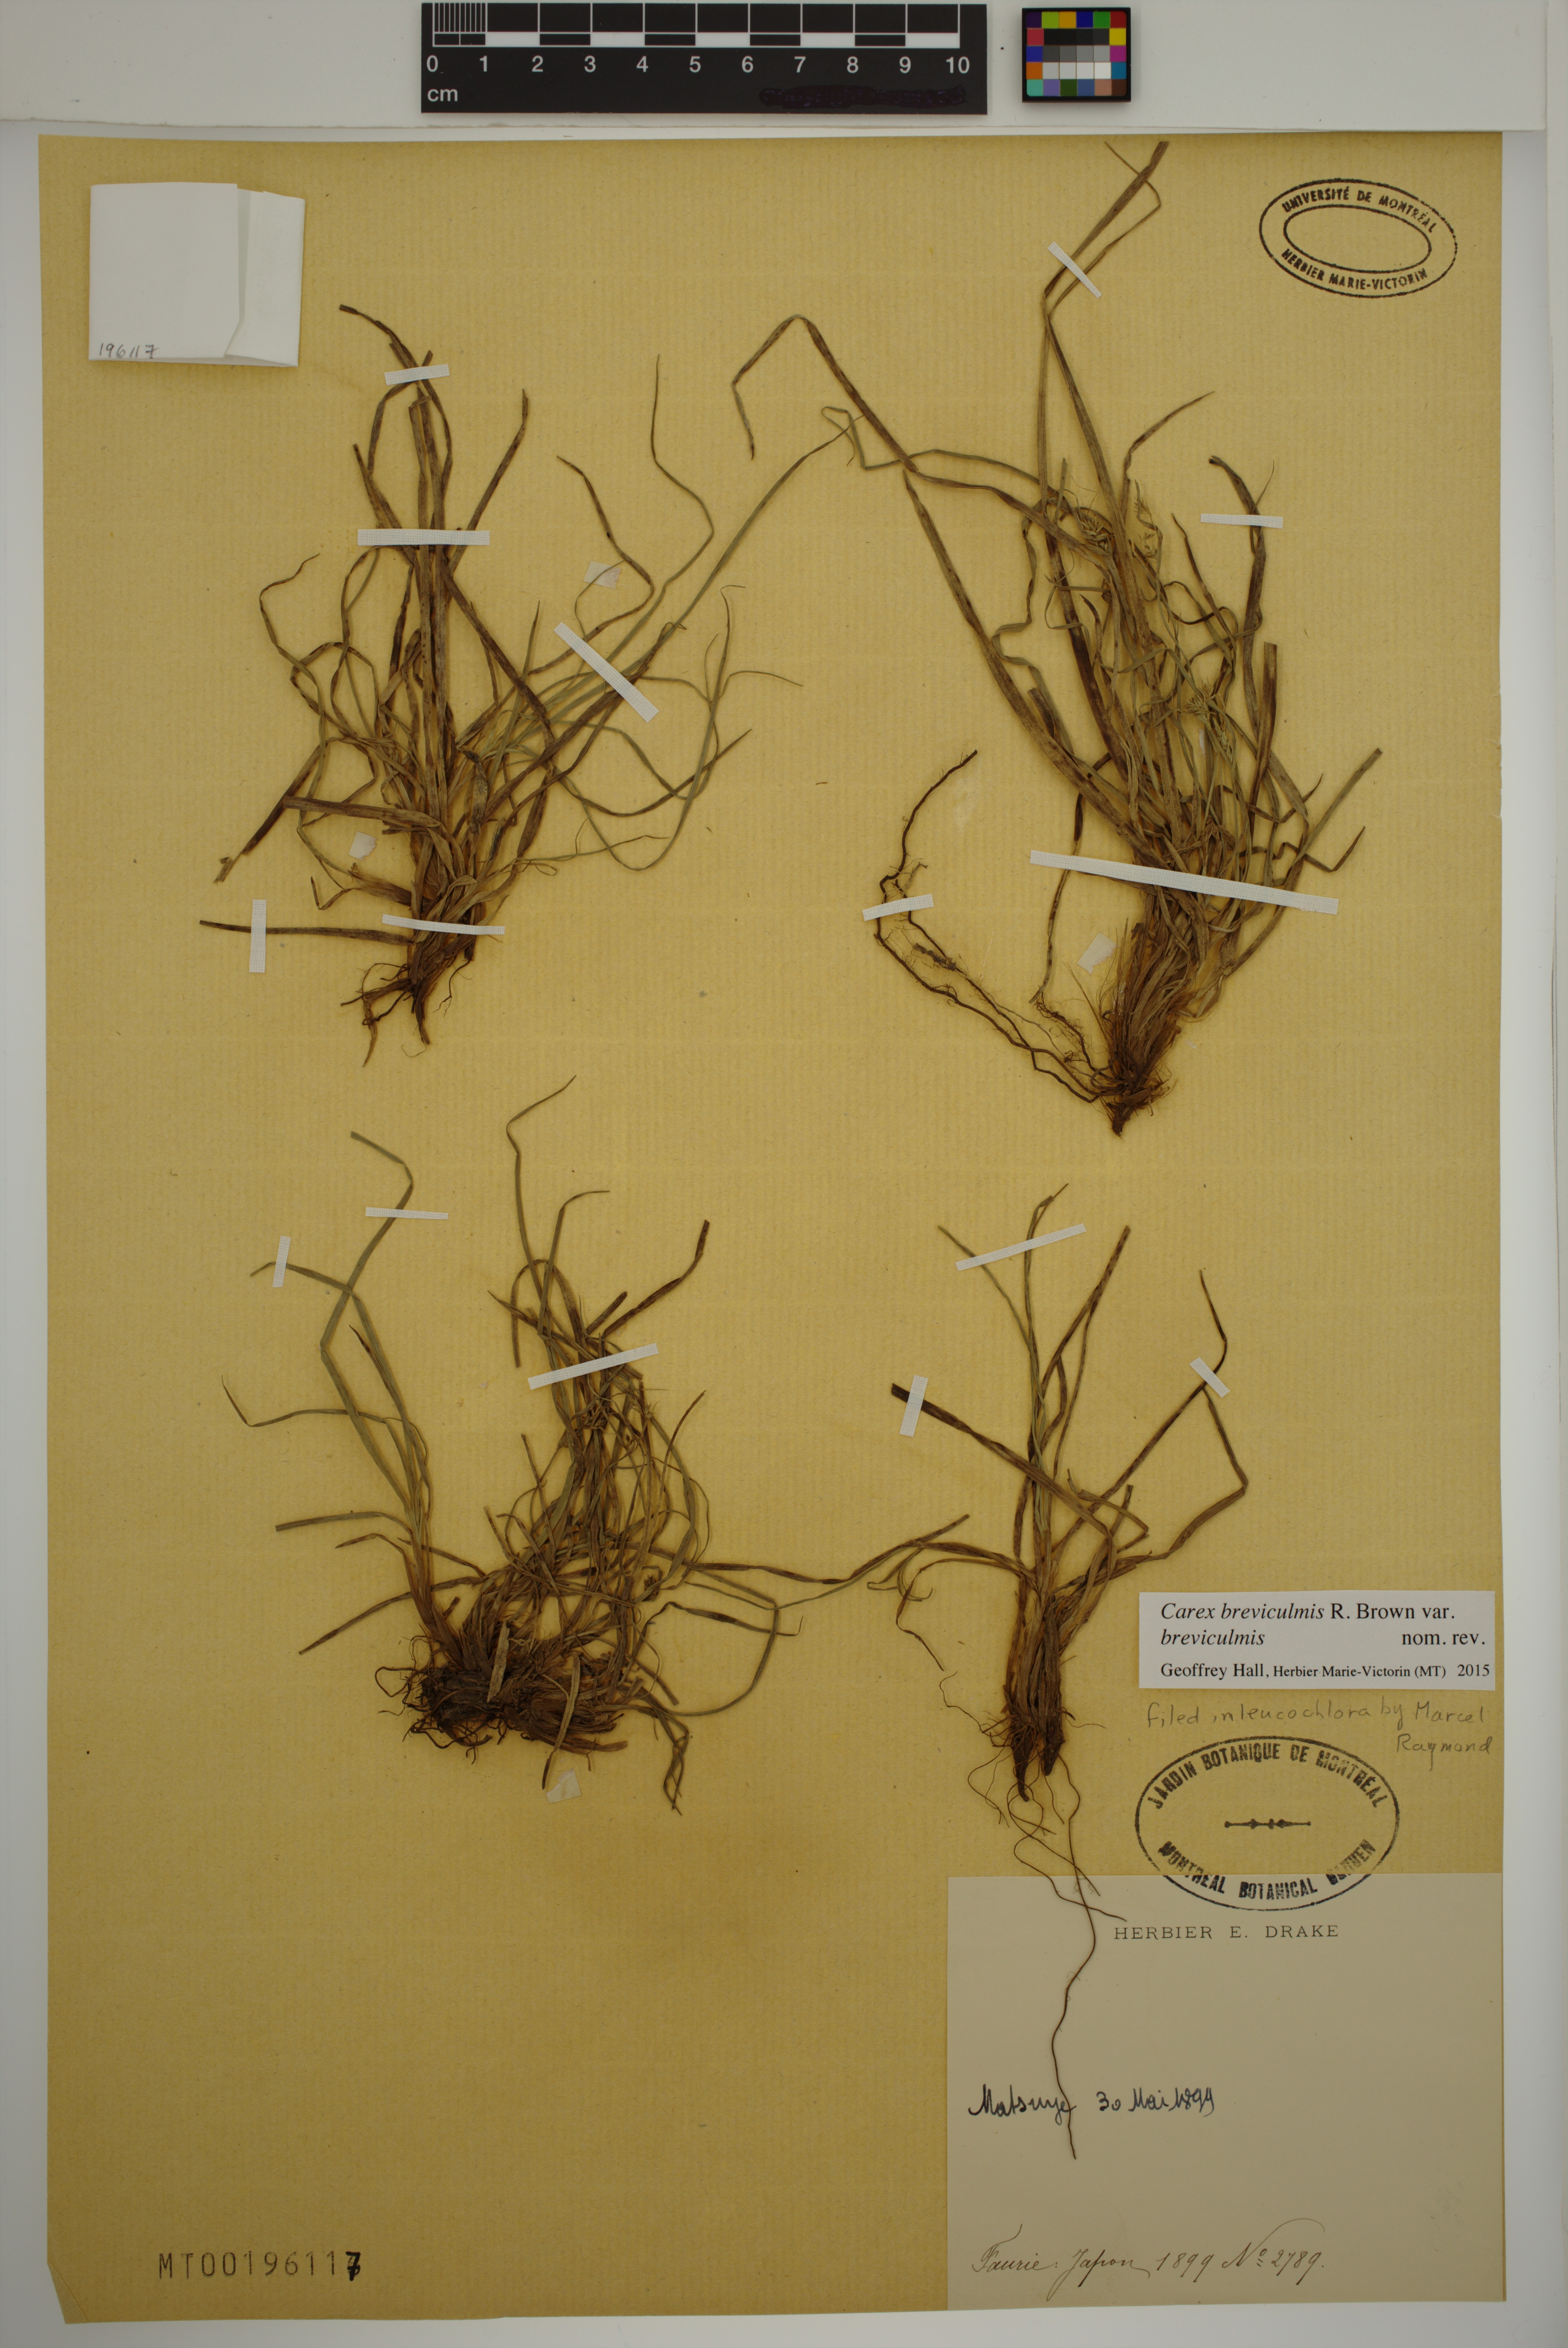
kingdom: Plantae
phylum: Tracheophyta
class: Liliopsida
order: Poales
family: Cyperaceae
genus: Carex
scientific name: Carex breviculmis
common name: Asian shortstem sedge
